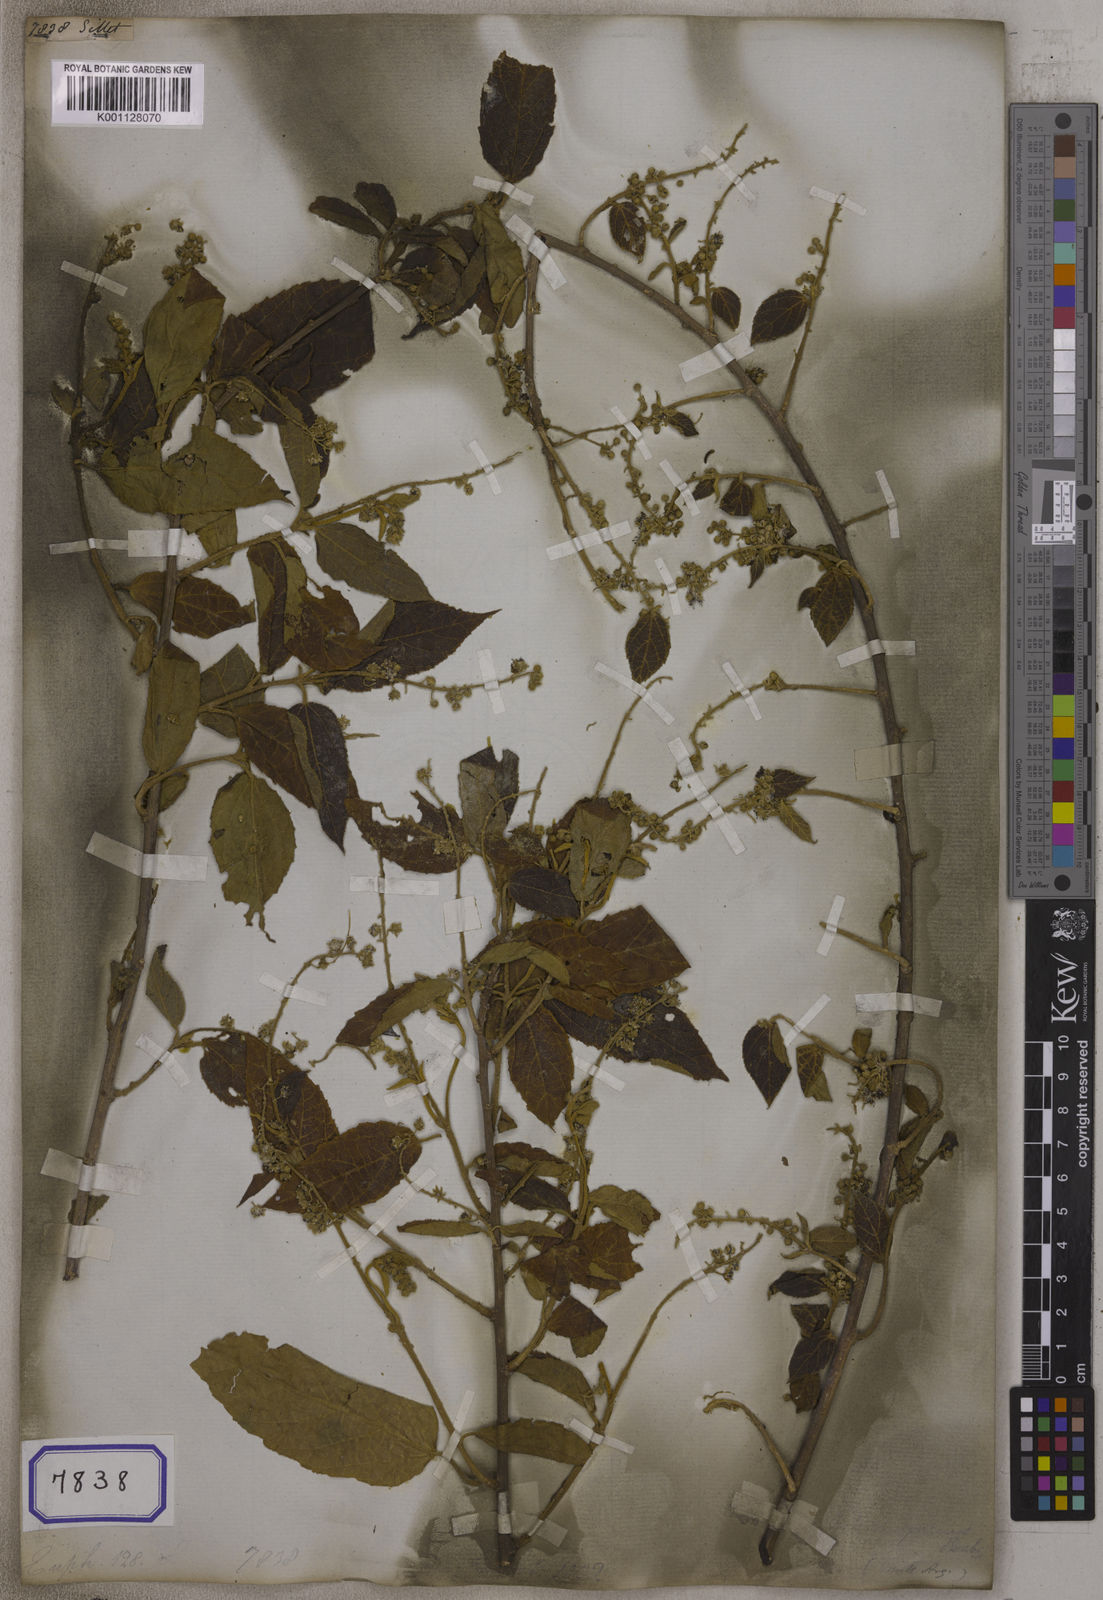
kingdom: Plantae
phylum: Tracheophyta
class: Magnoliopsida
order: Malpighiales
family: Euphorbiaceae
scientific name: Euphorbiaceae
